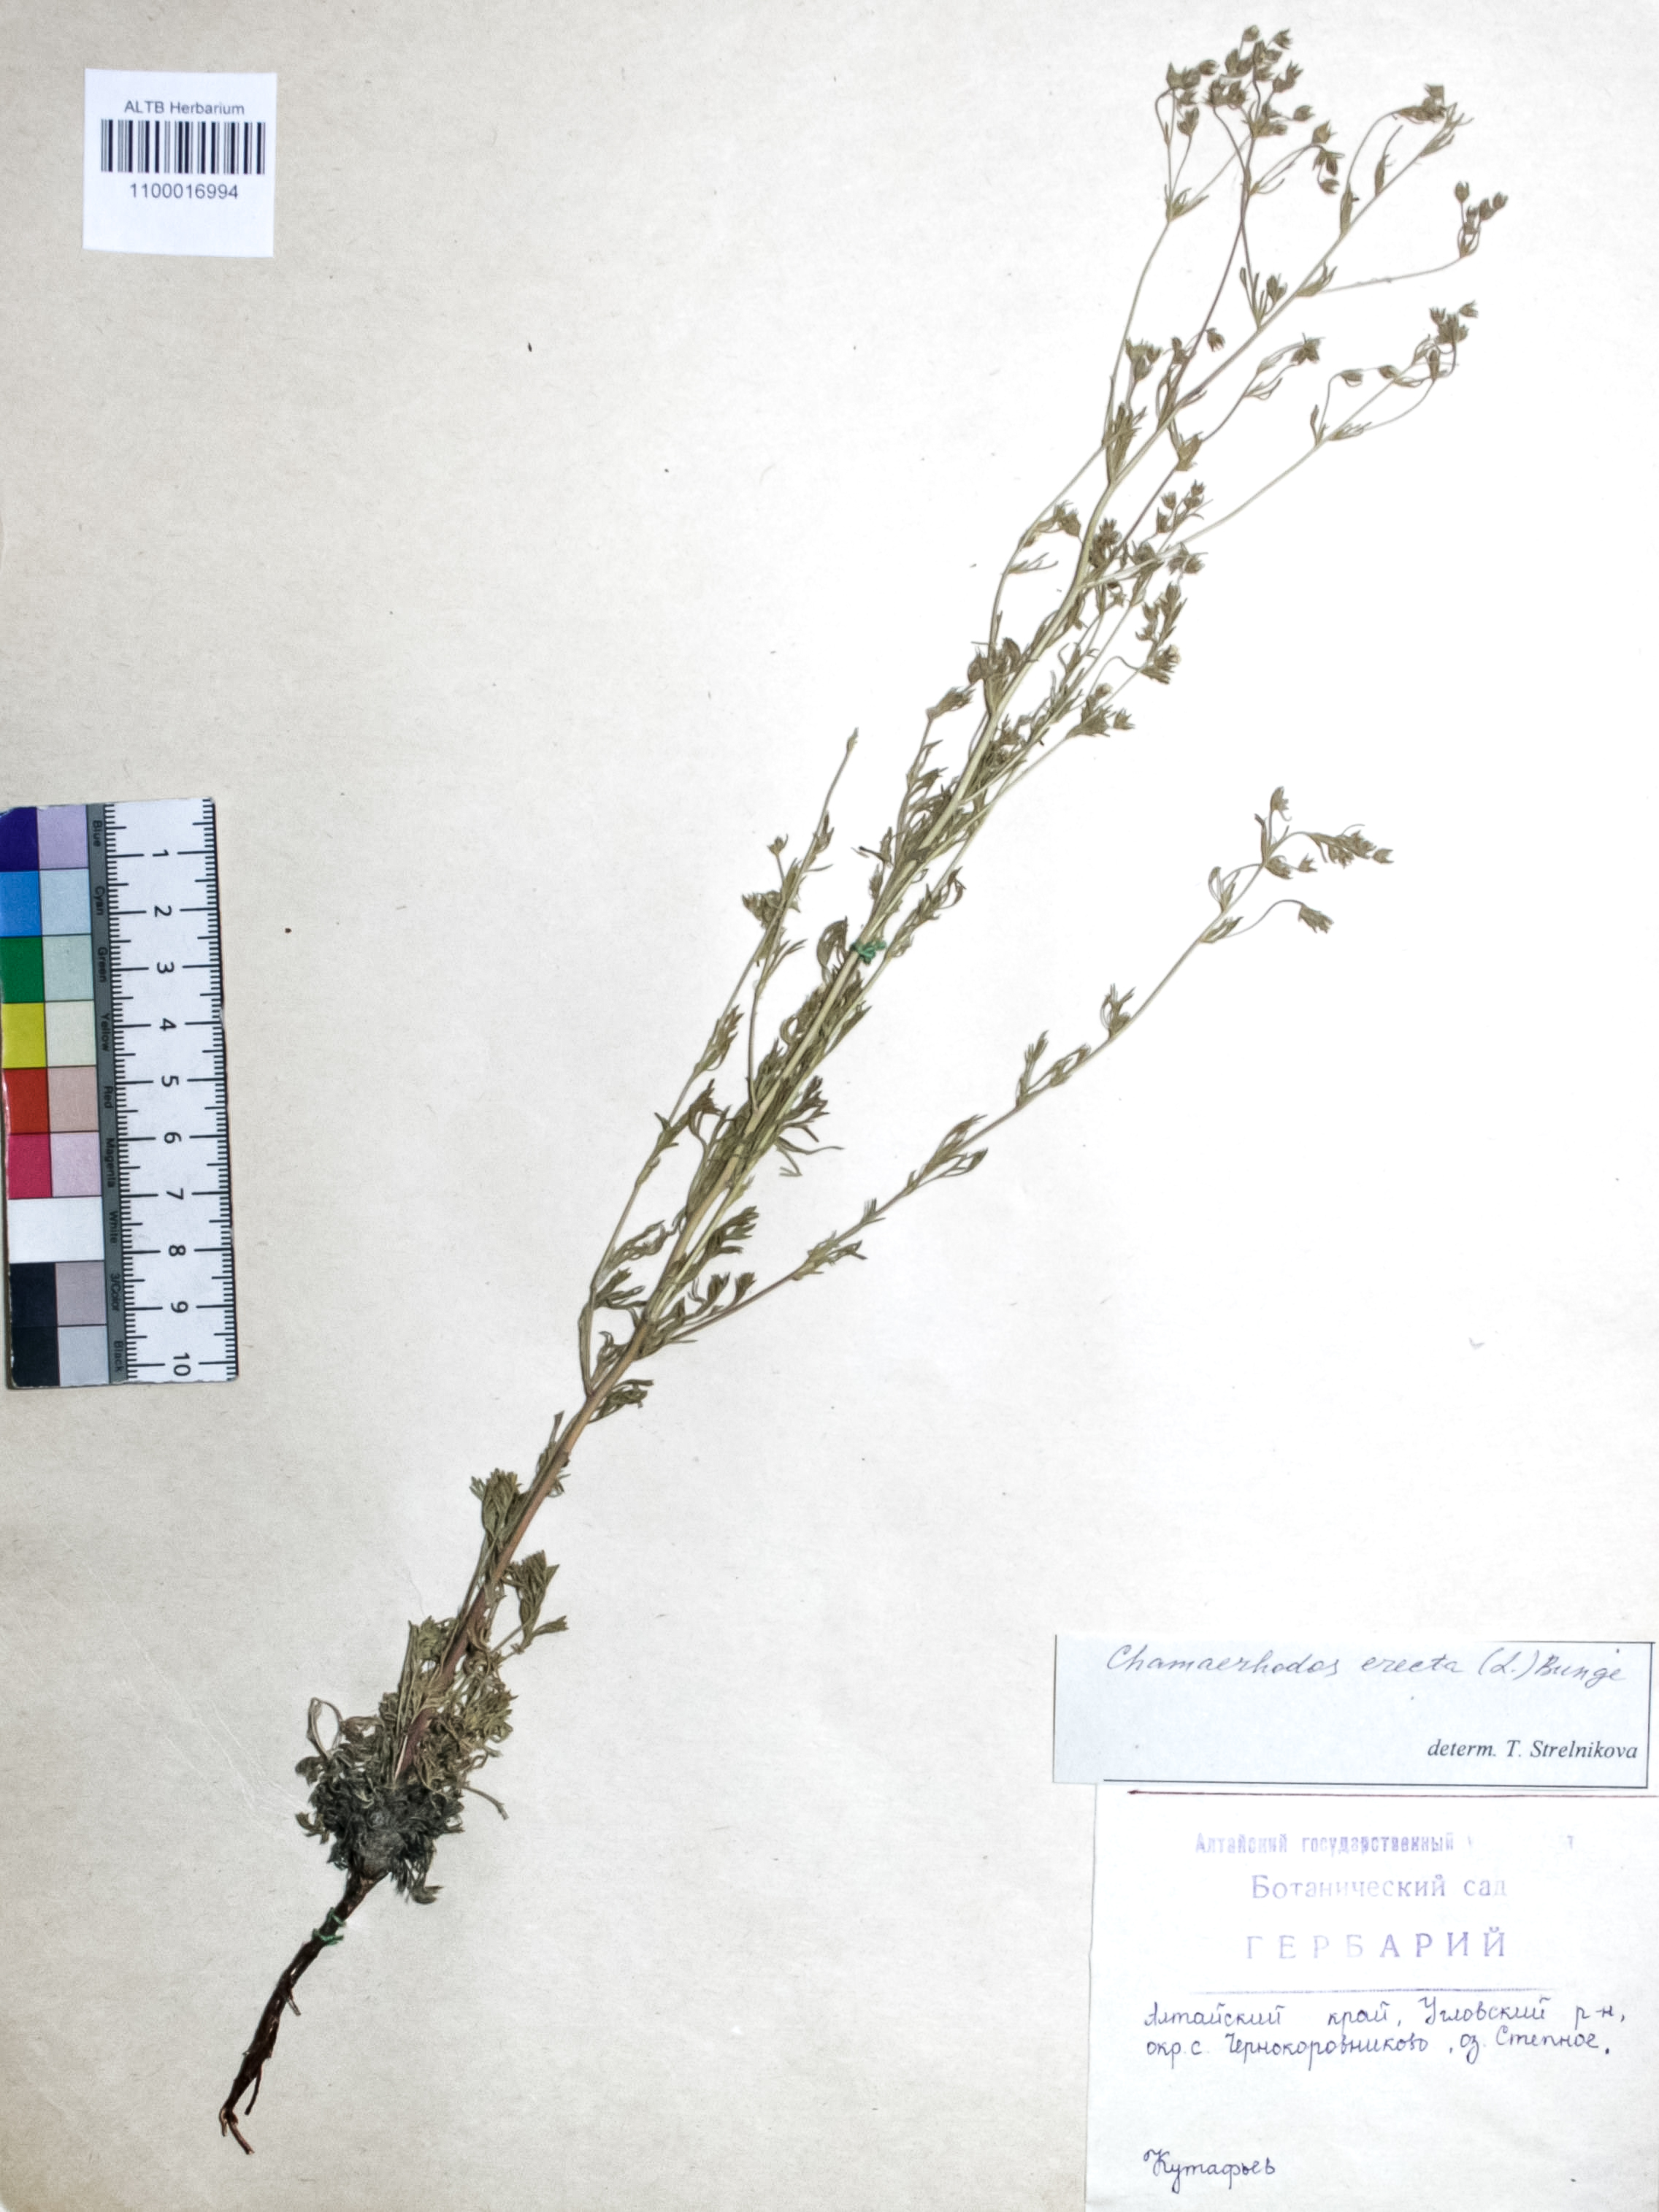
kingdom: Plantae
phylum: Tracheophyta
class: Magnoliopsida
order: Rosales
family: Rosaceae
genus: Chamaerhodos
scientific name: Chamaerhodos erecta
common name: American chamaerhodos
